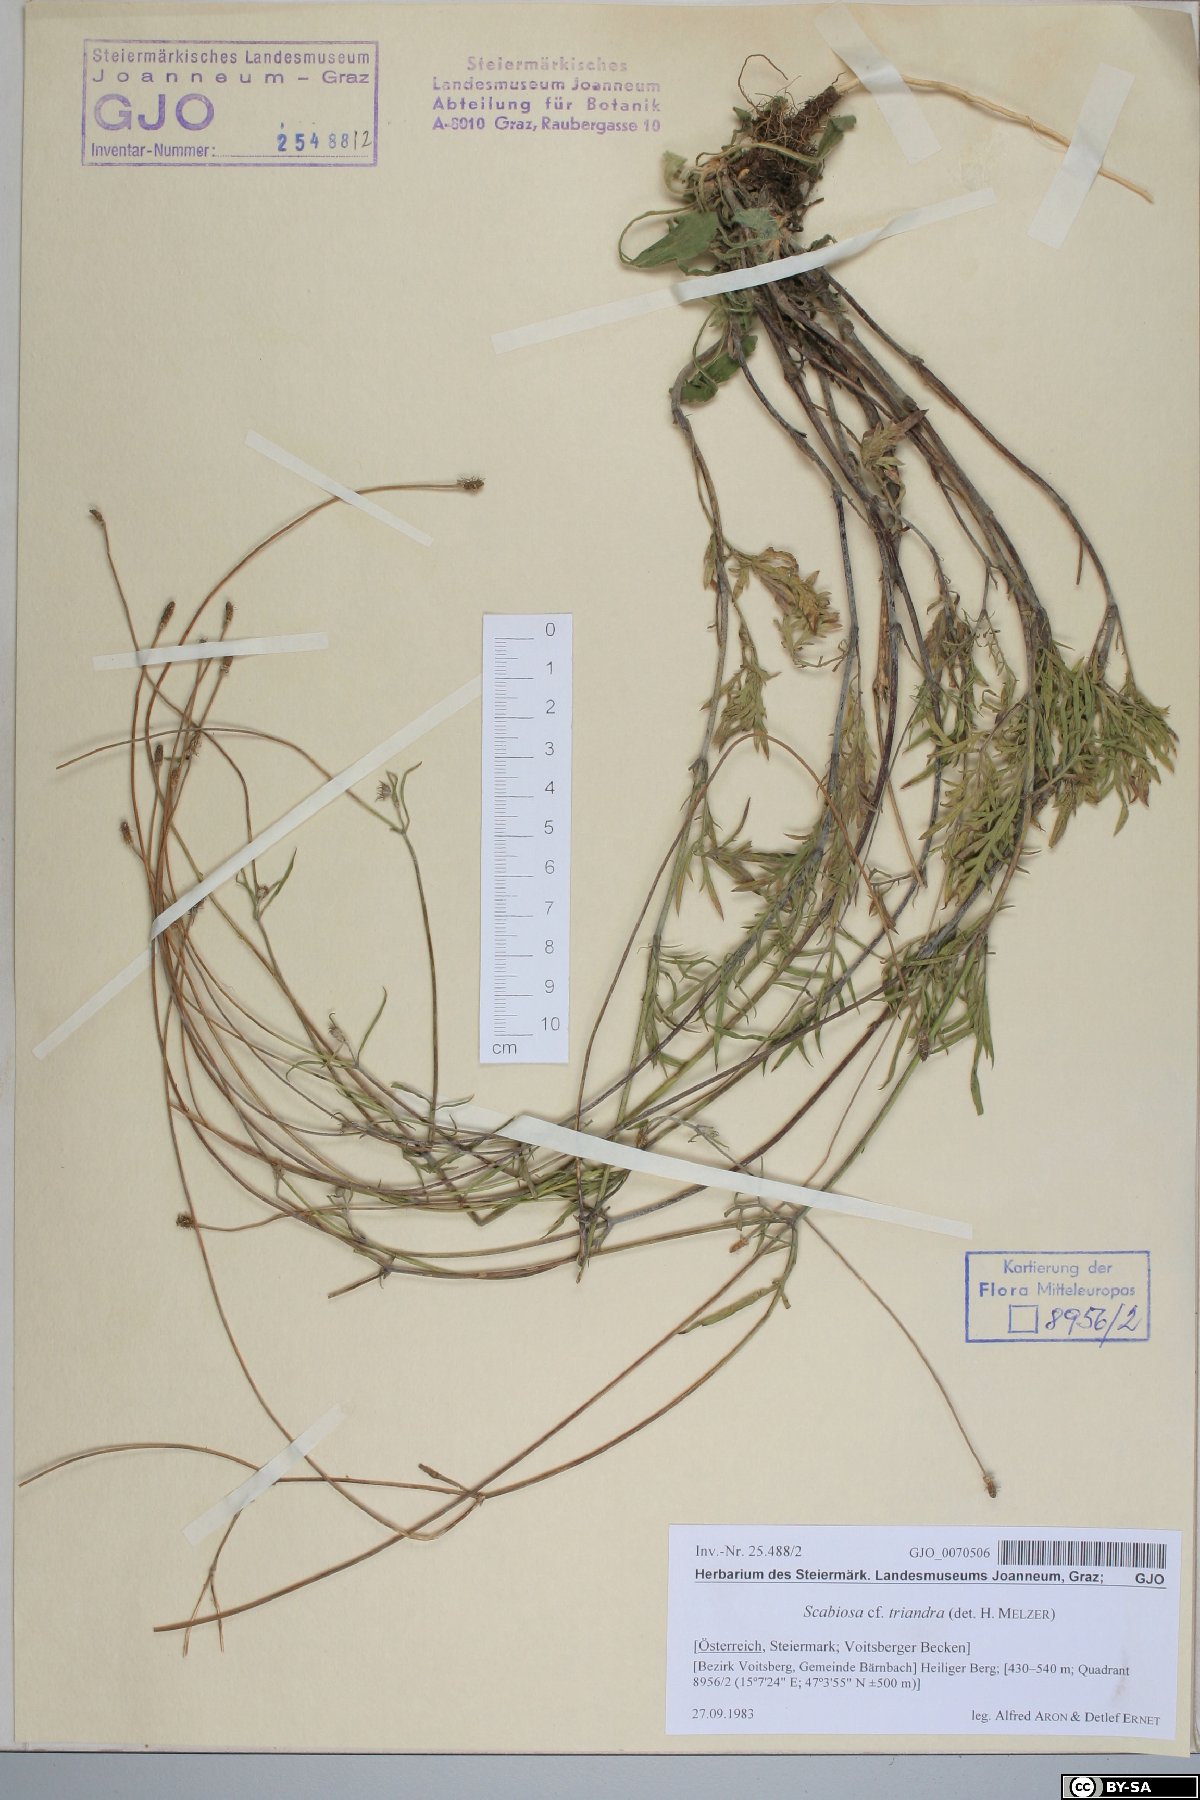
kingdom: Plantae
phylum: Tracheophyta
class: Magnoliopsida
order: Dipsacales
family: Caprifoliaceae
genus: Scabiosa
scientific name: Scabiosa triandra
